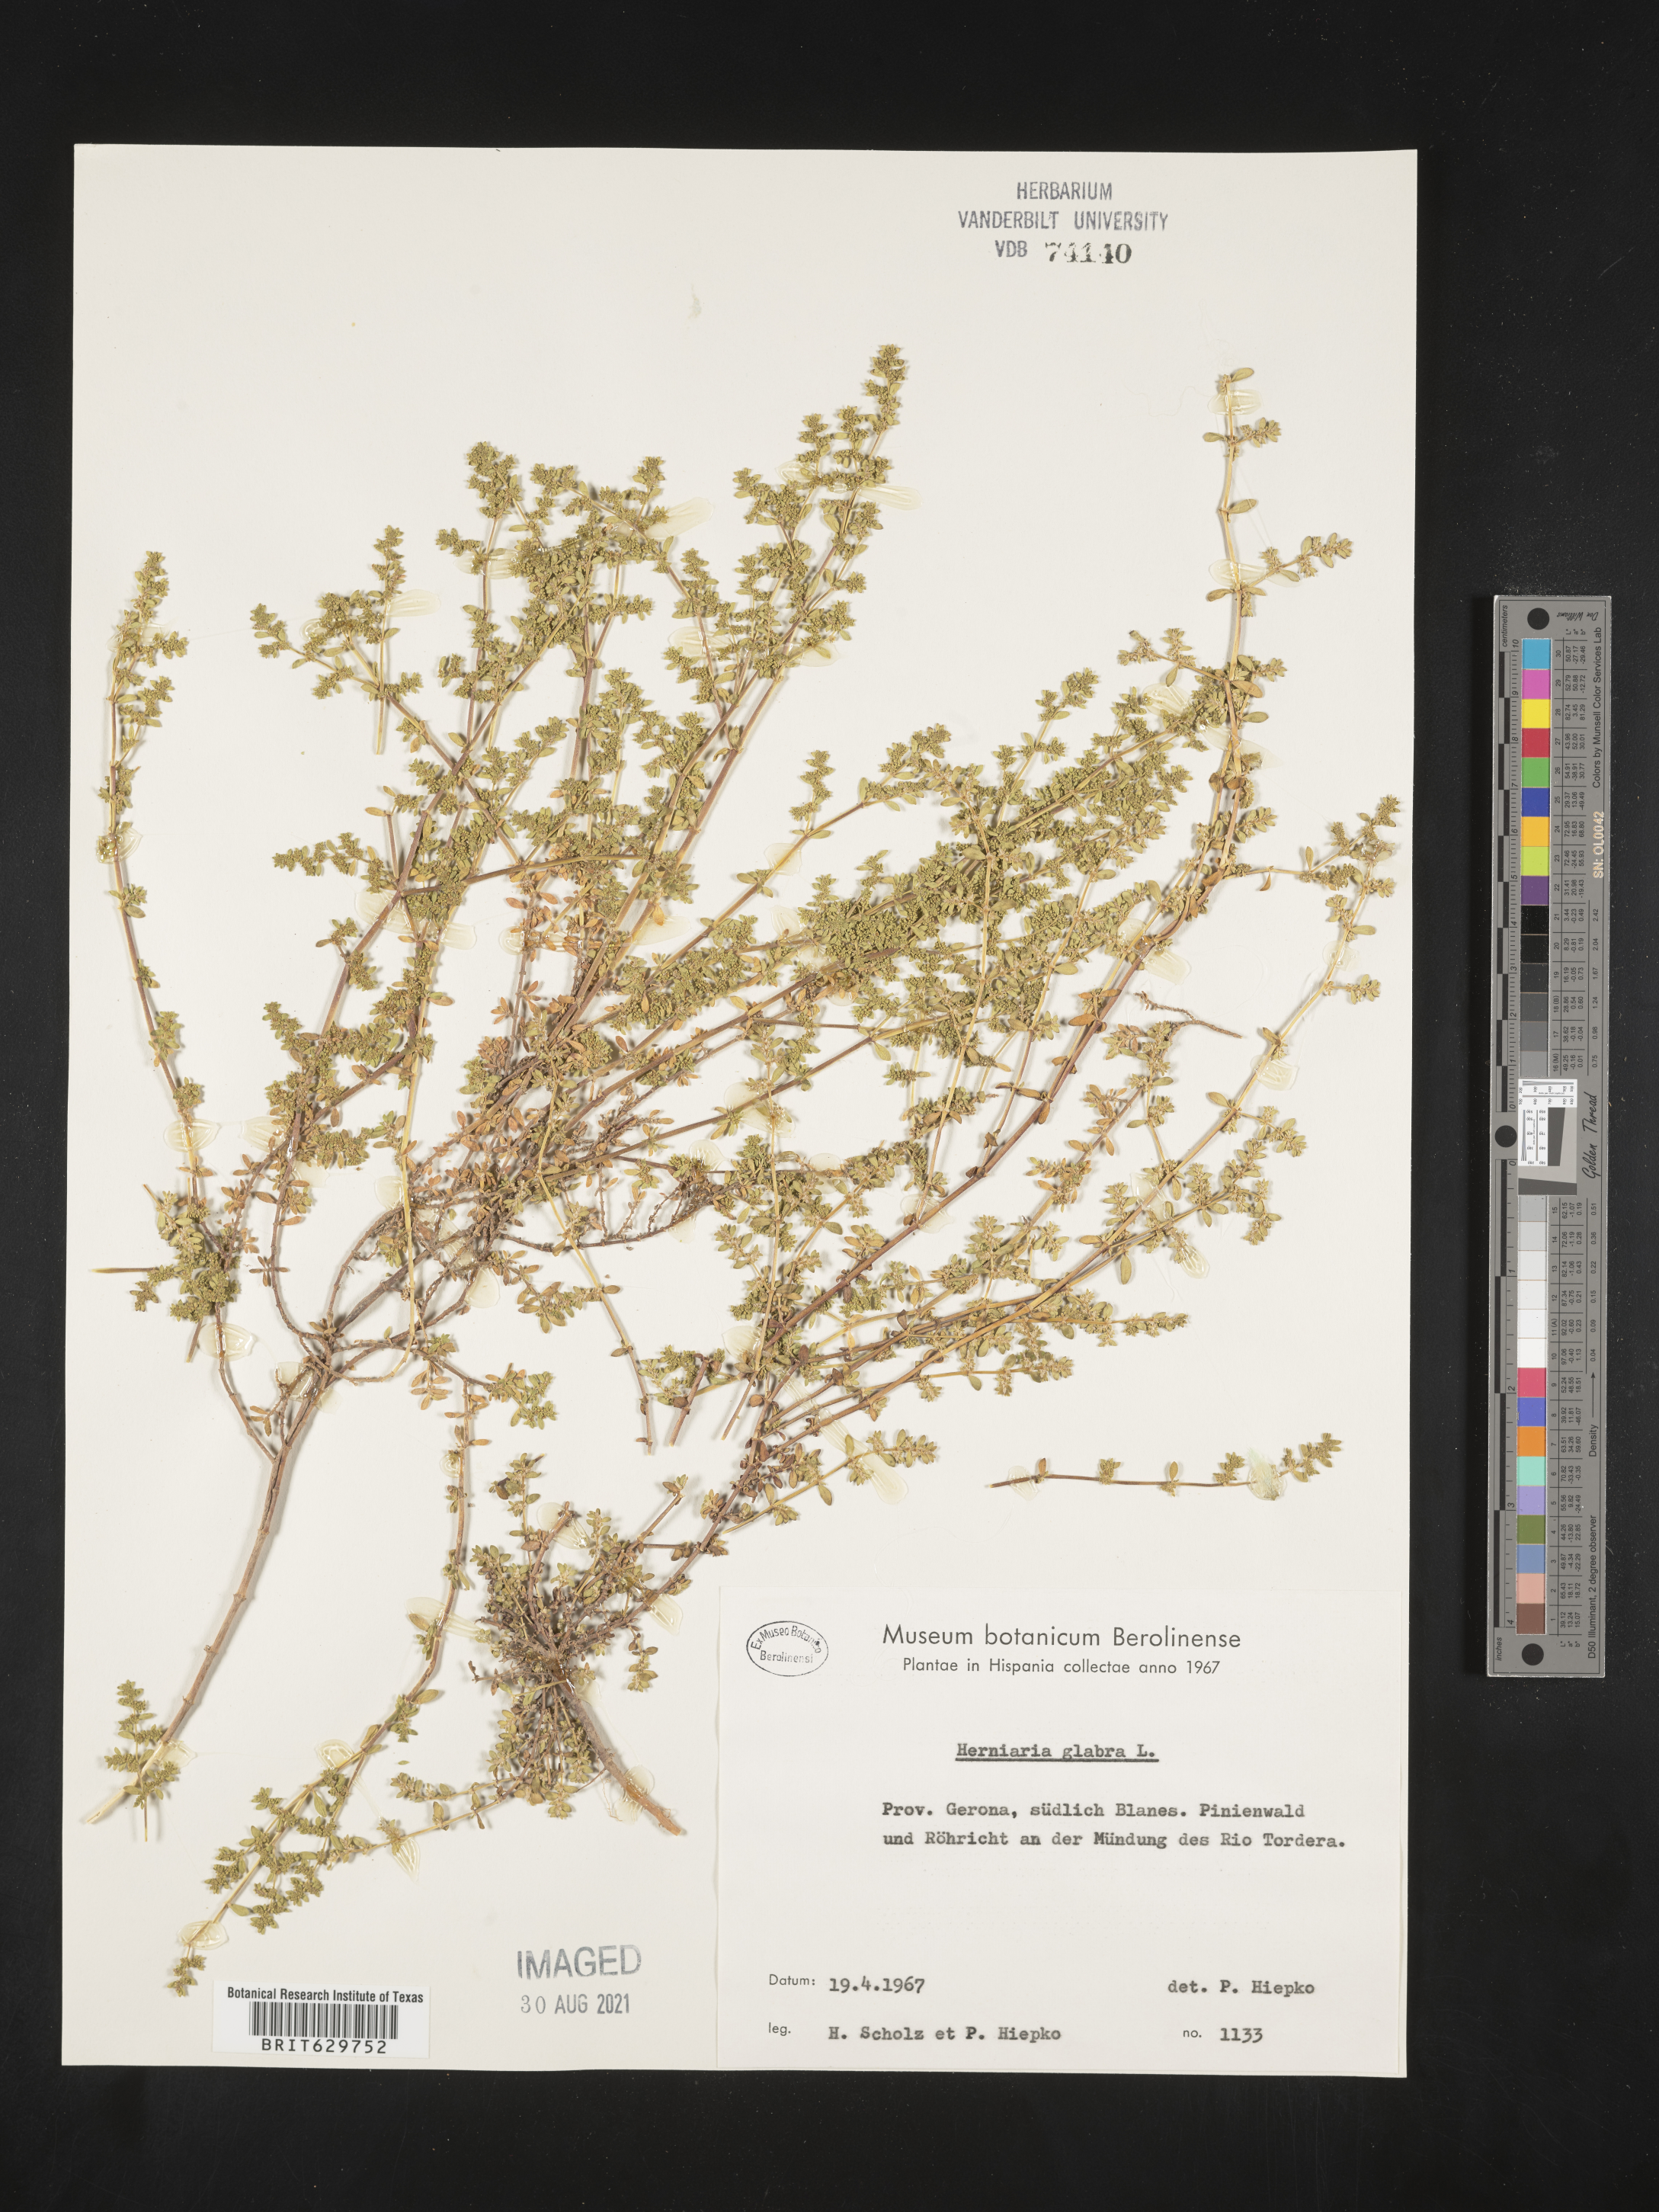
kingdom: Plantae
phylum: Tracheophyta
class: Magnoliopsida
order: Caryophyllales
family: Caryophyllaceae
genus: Herniaria
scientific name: Herniaria glabra
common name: Smooth rupturewort
